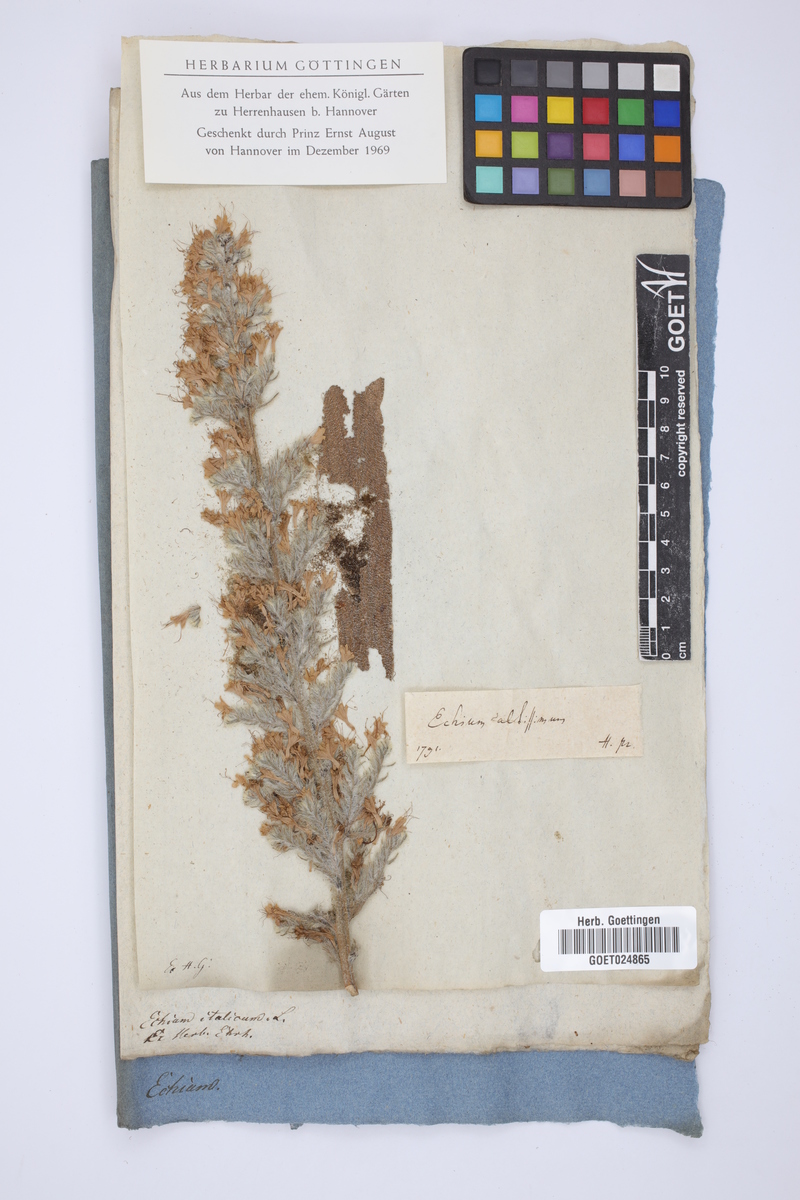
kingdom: Plantae
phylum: Tracheophyta
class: Magnoliopsida
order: Boraginales
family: Boraginaceae
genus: Echium
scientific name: Echium italicum
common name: Italian viper's bugloss
